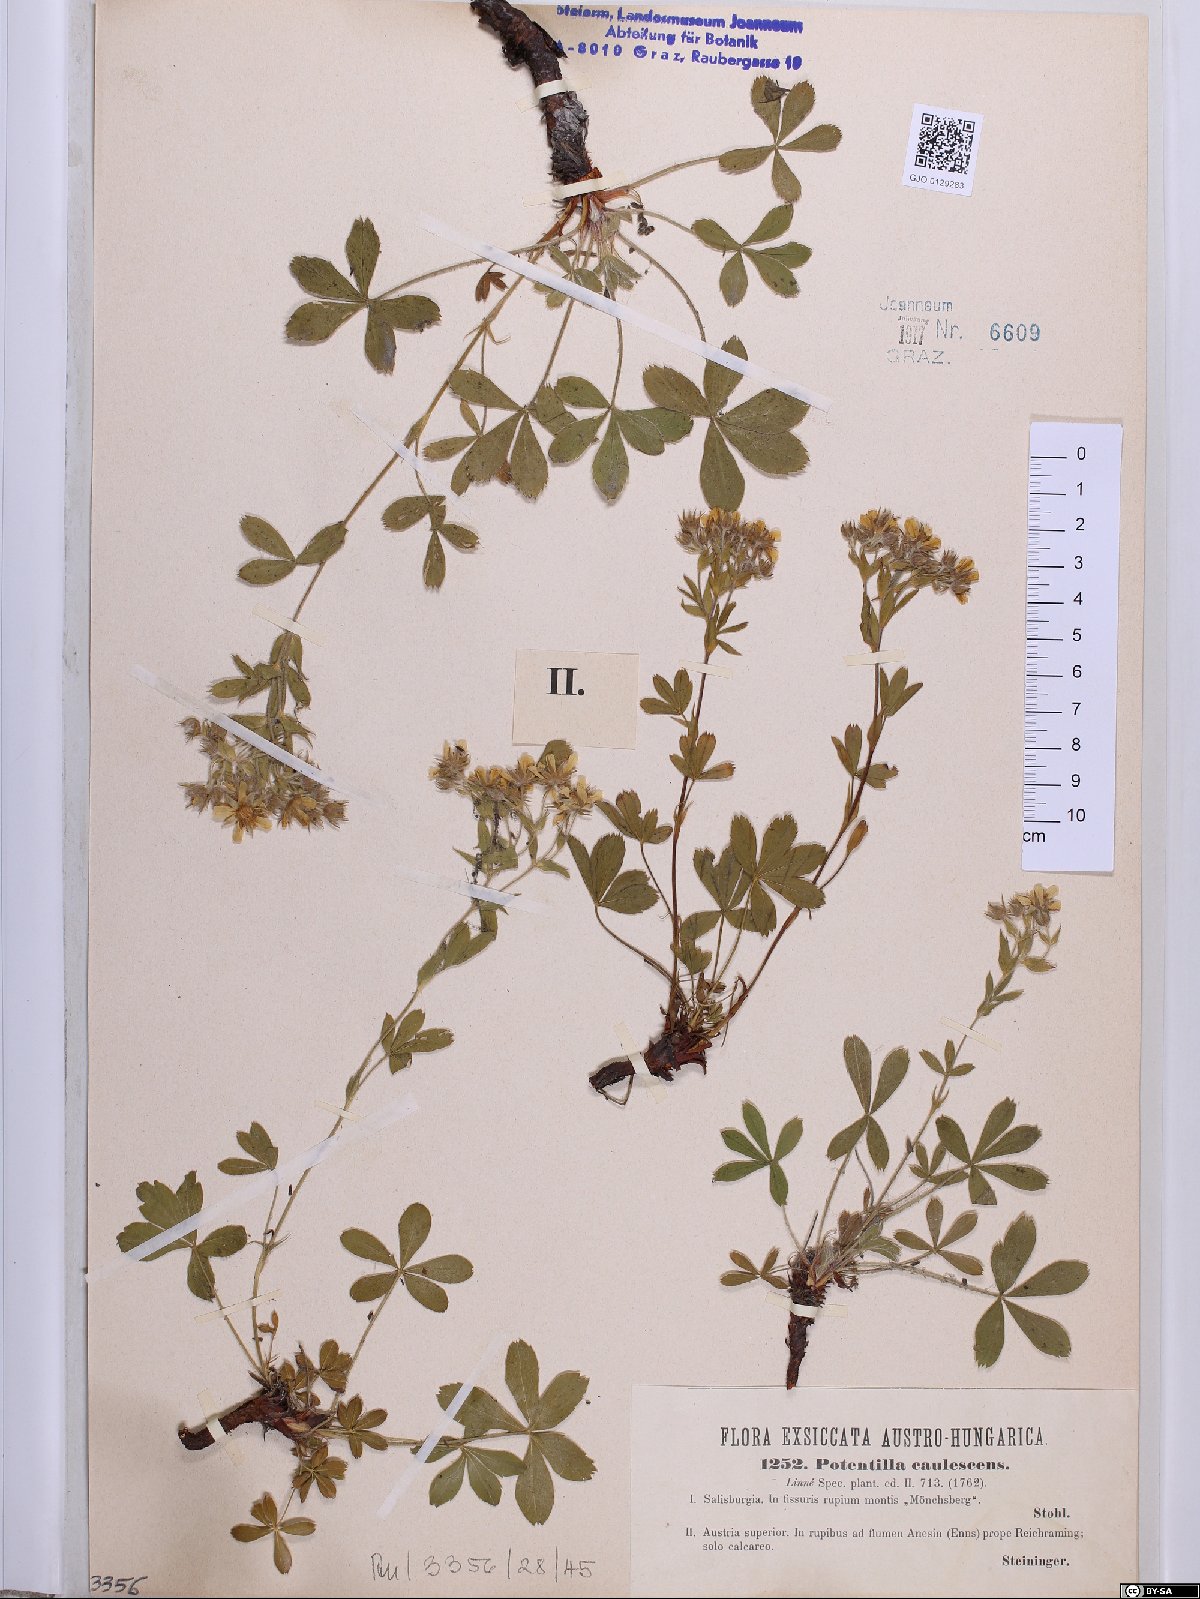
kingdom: Plantae
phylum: Tracheophyta
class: Magnoliopsida
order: Rosales
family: Rosaceae
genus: Potentilla
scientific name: Potentilla caulescens
